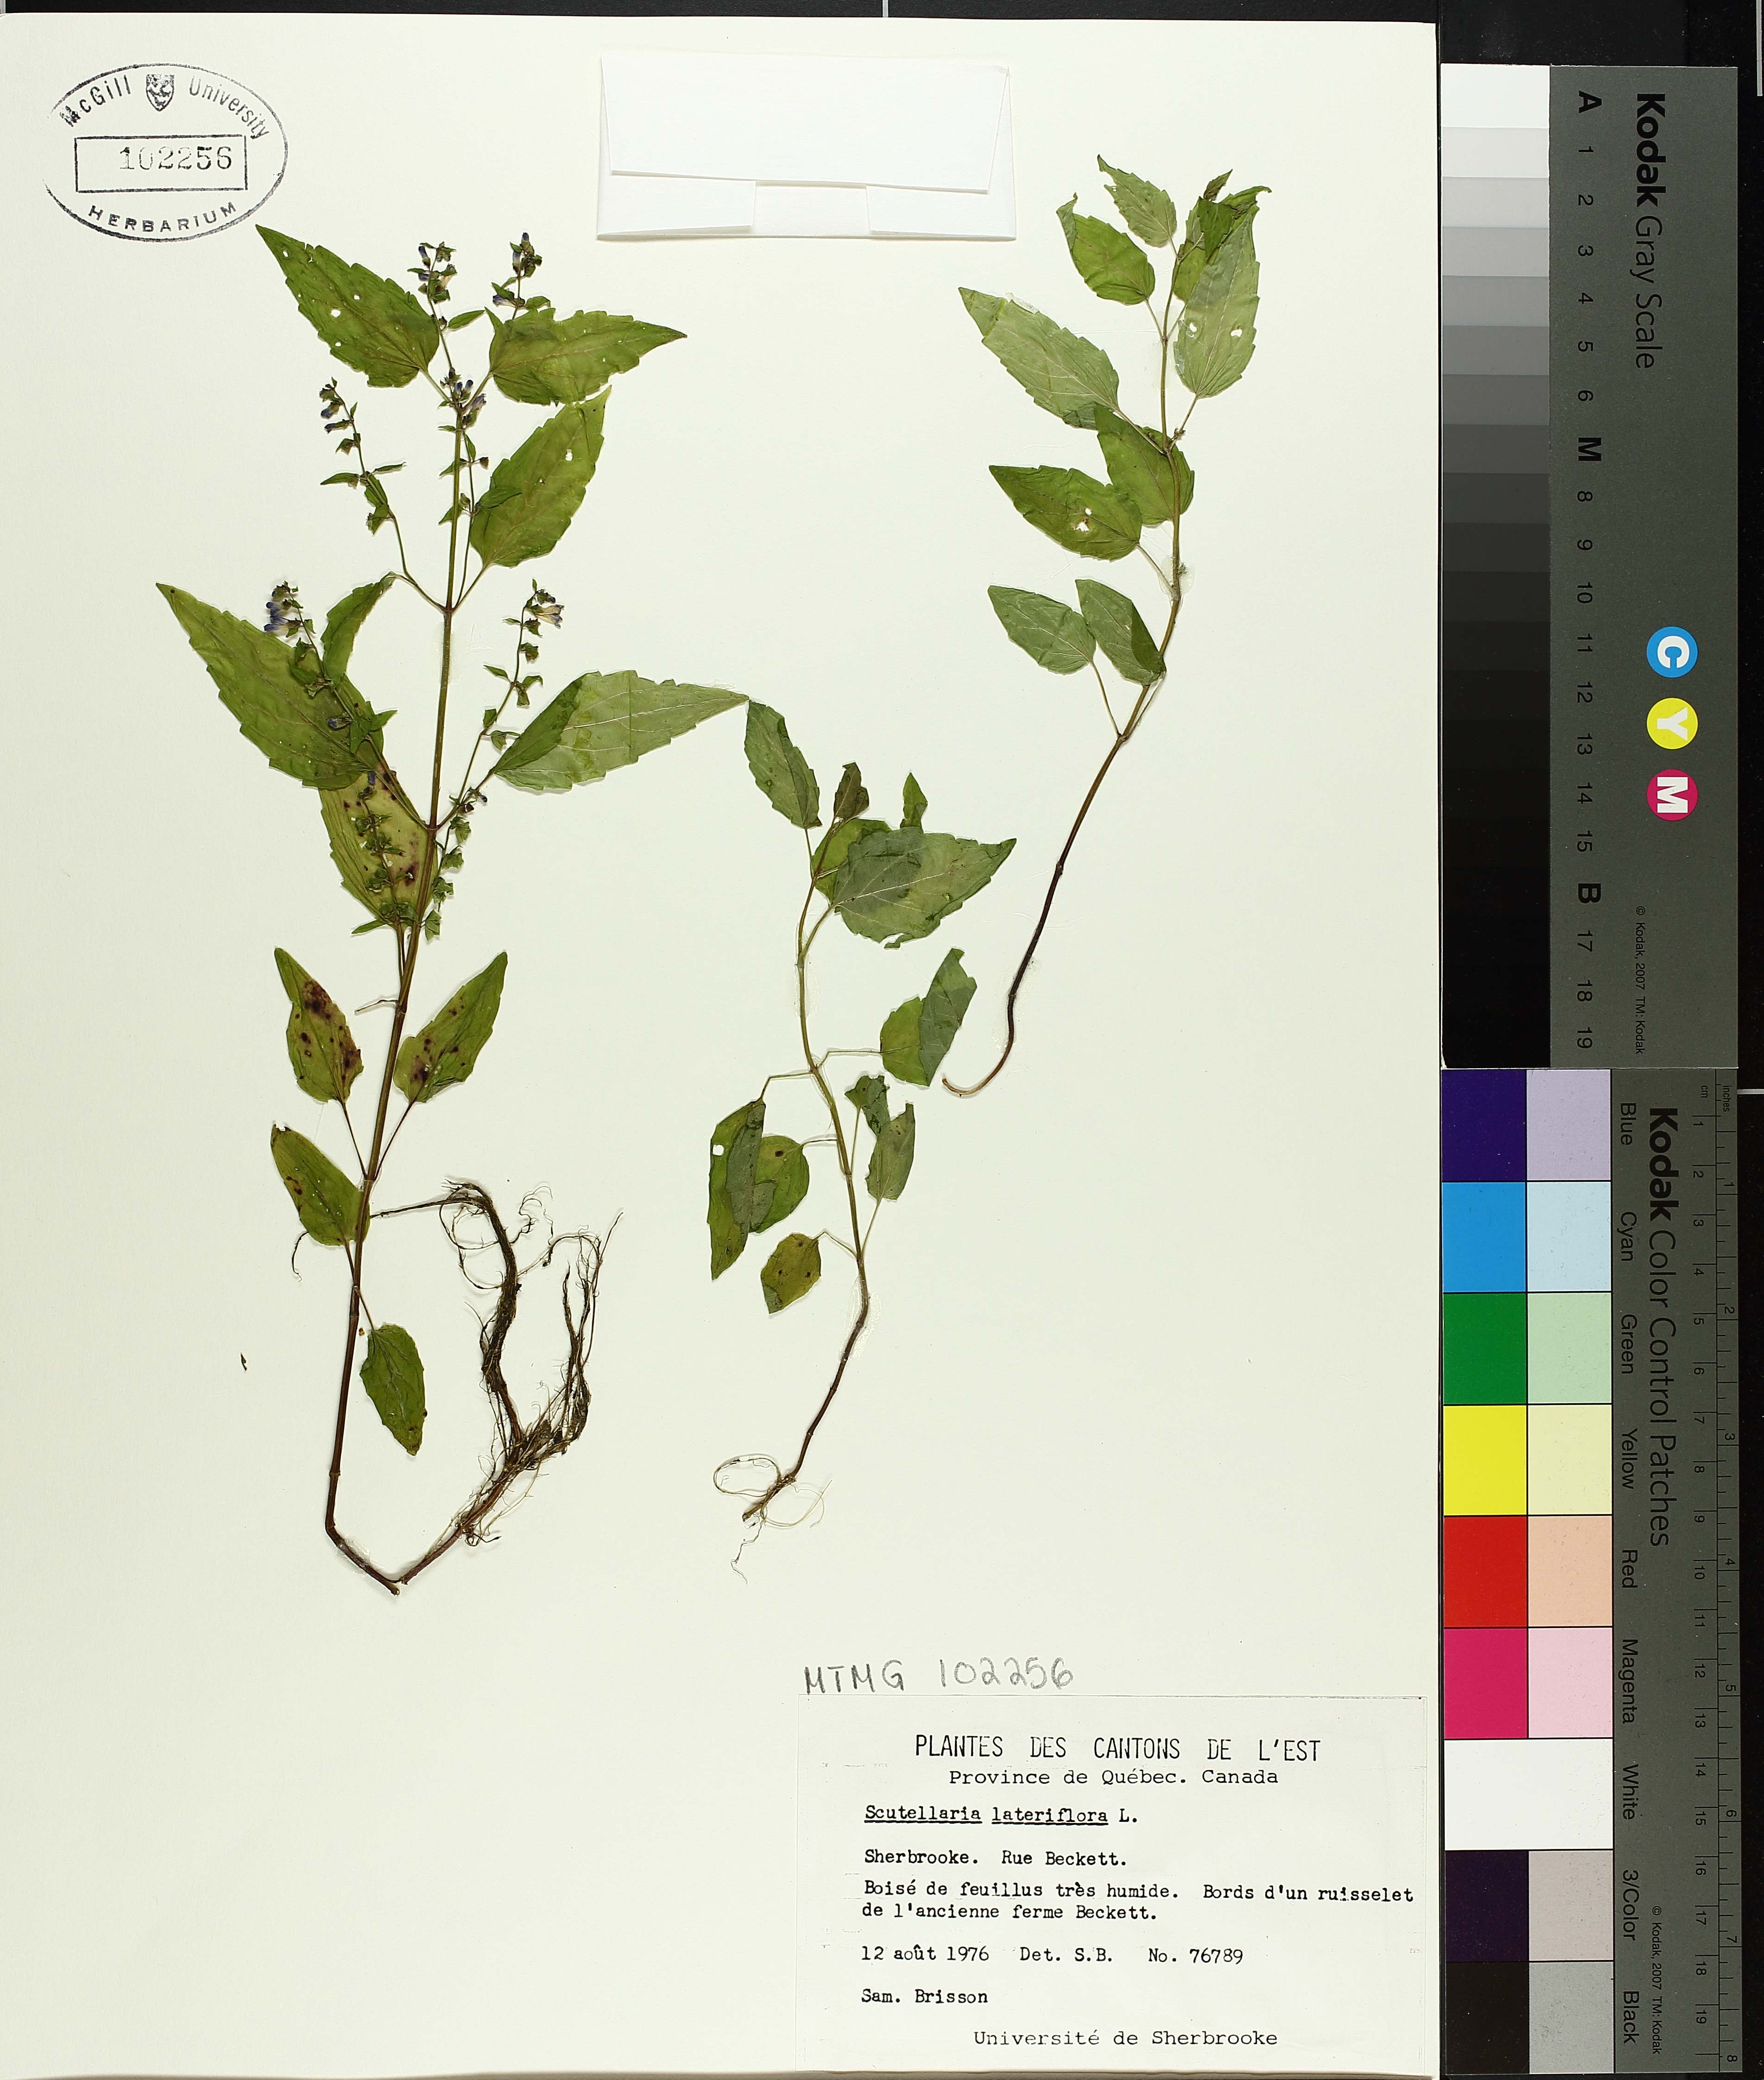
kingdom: Plantae
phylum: Tracheophyta
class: Magnoliopsida
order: Lamiales
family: Lamiaceae
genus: Scutellaria
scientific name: Scutellaria lateriflora
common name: Blue skullcap
